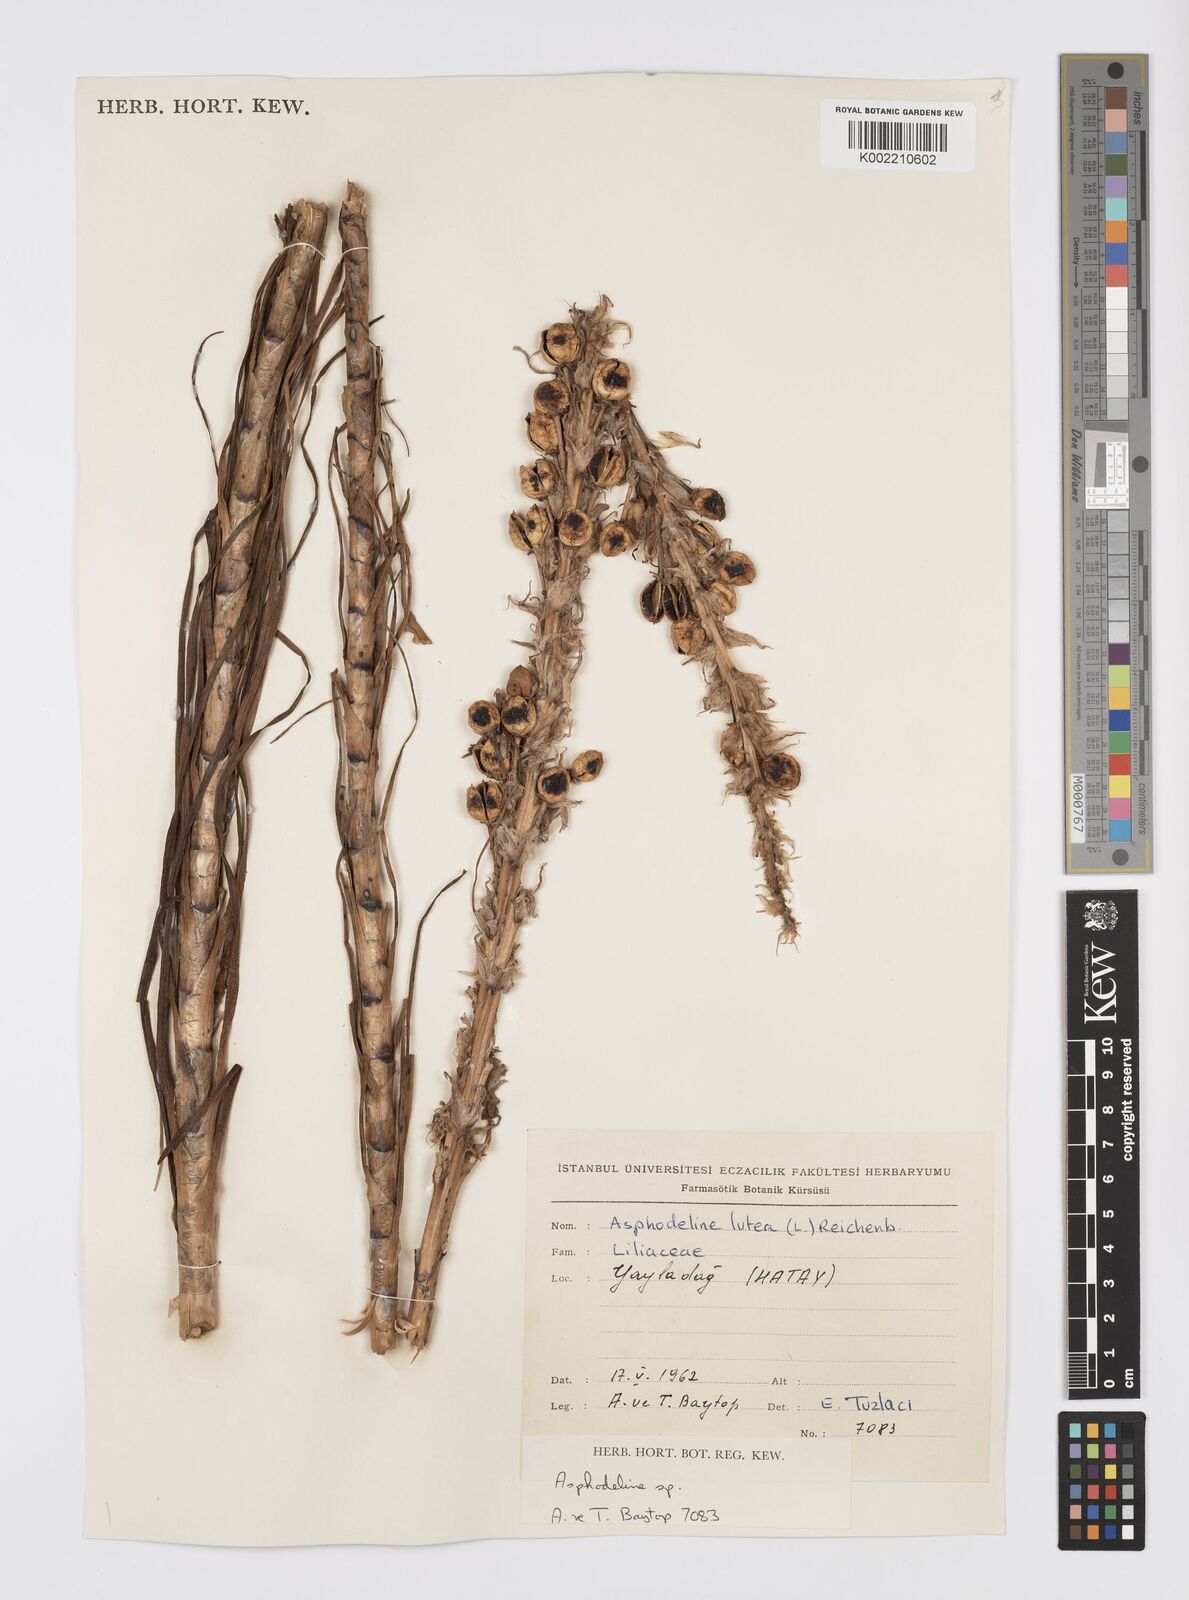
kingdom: Plantae
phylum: Tracheophyta
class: Liliopsida
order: Asparagales
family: Asphodelaceae
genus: Asphodeline
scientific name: Asphodeline lutea
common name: Yellow asphodel
